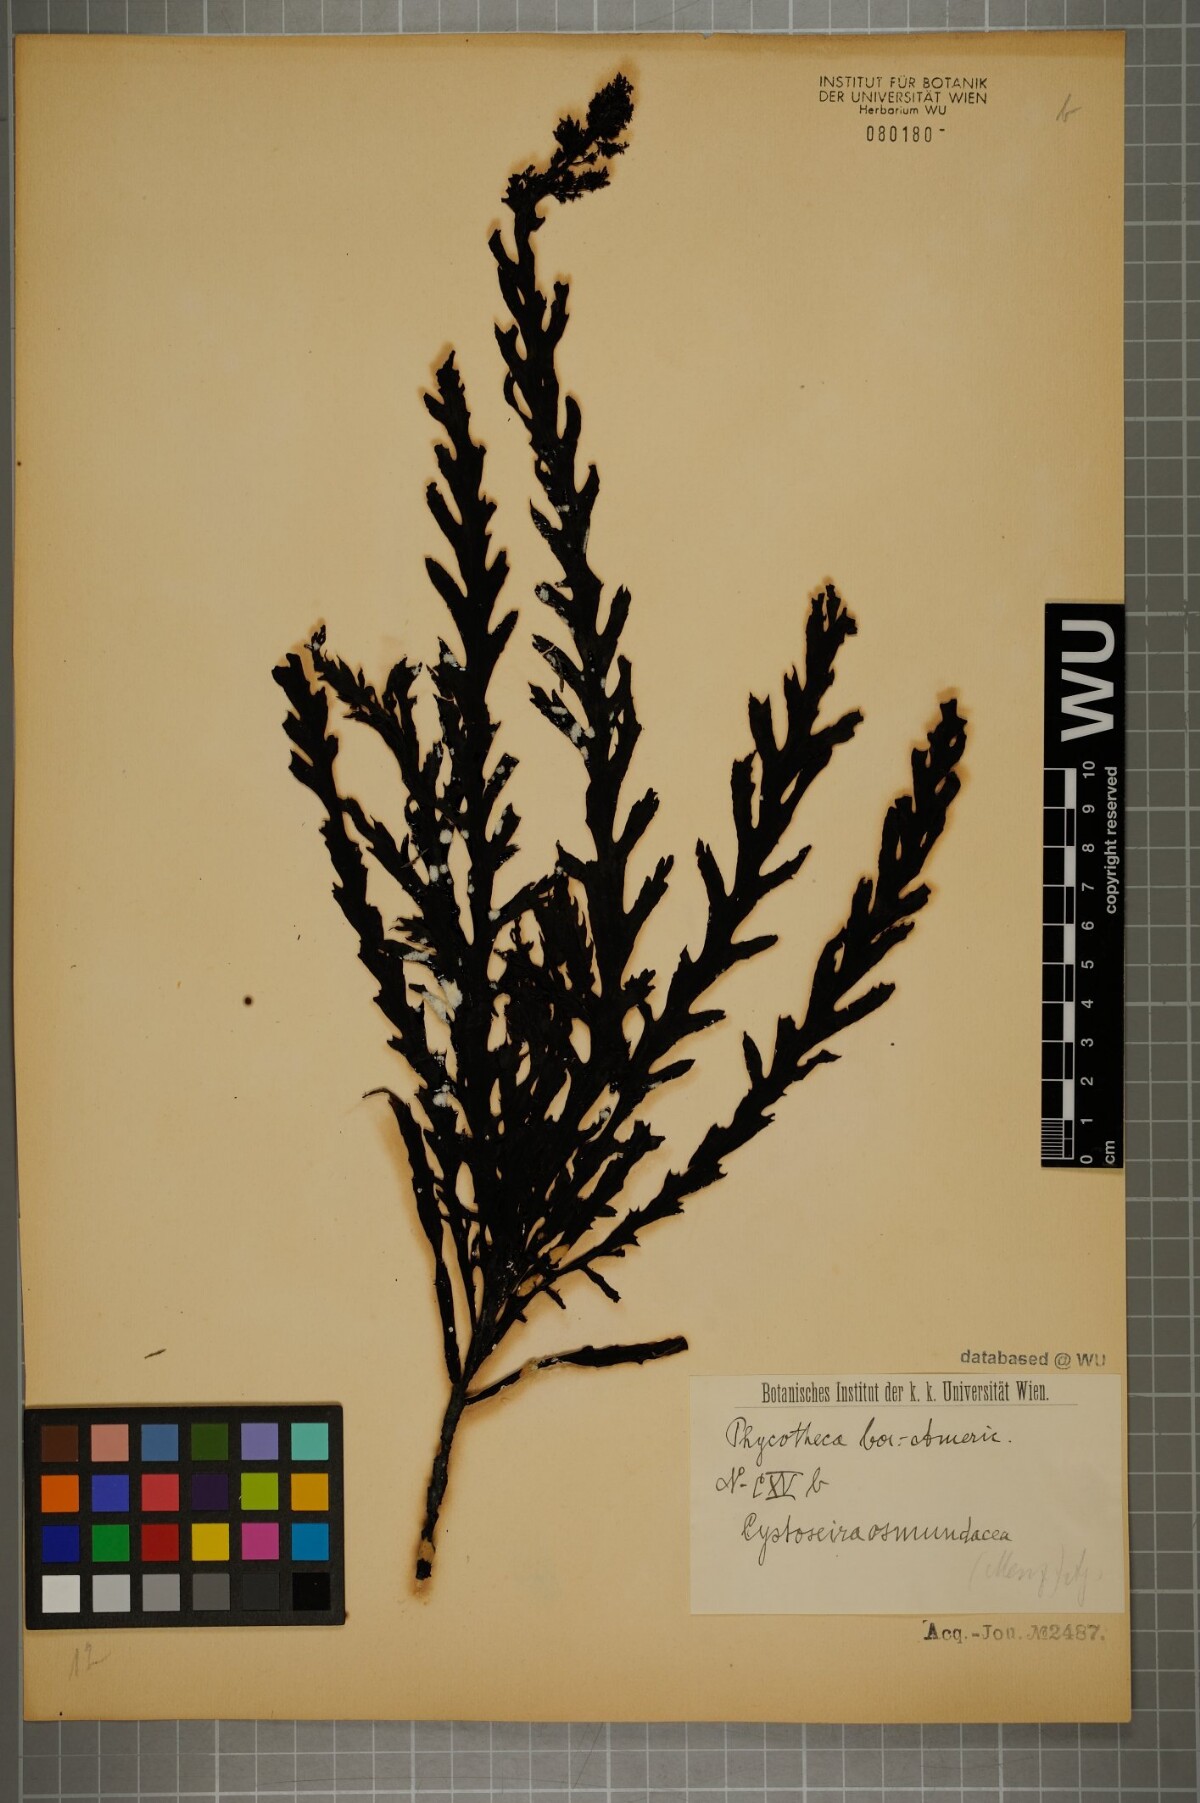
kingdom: Chromista
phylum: Ochrophyta
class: Phaeophyceae
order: Fucales
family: Sargassaceae
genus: Cystoseira
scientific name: Cystoseira osmundacea
